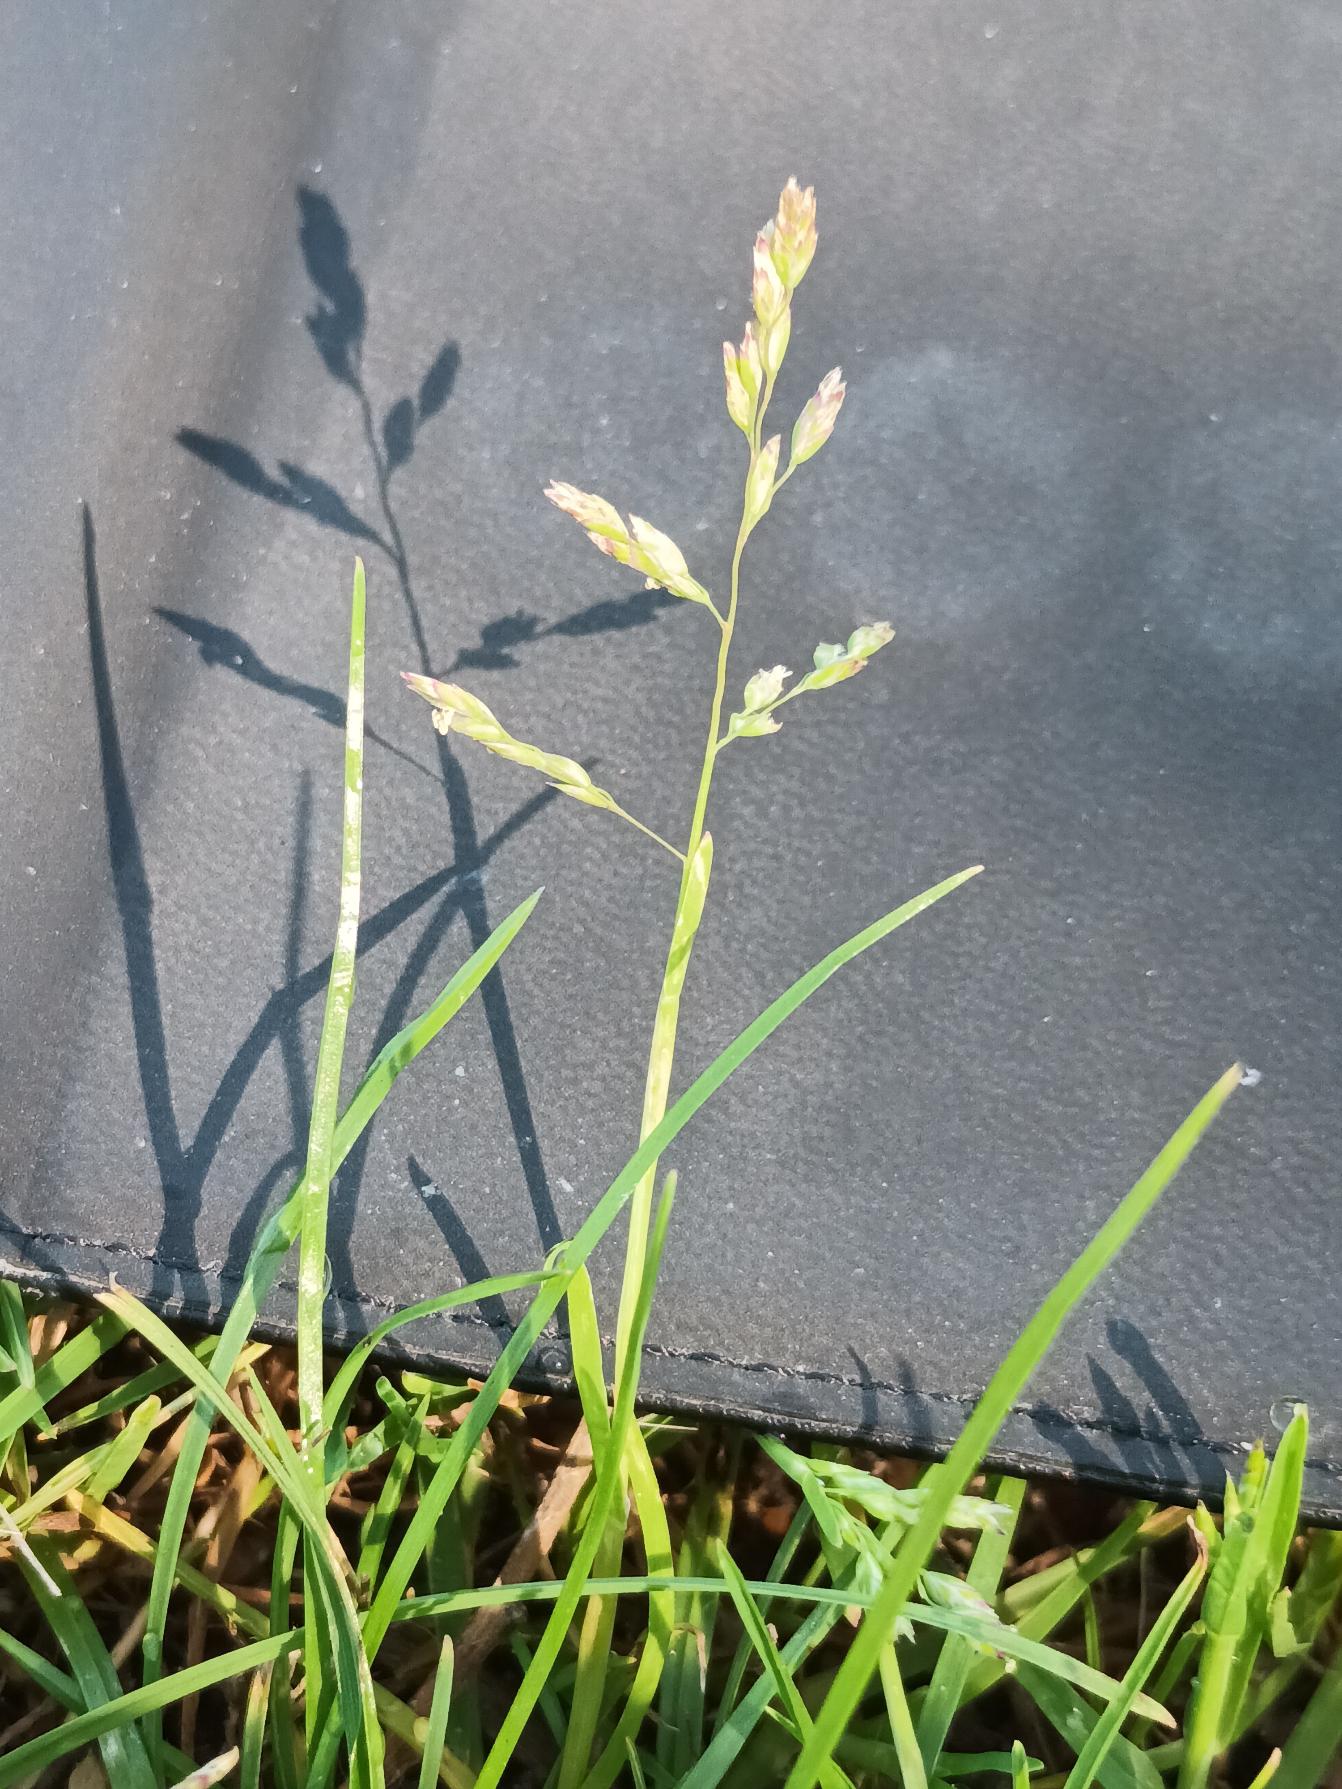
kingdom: Plantae
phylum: Tracheophyta
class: Liliopsida
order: Poales
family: Poaceae
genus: Poa
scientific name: Poa annua
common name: Enårig rapgræs
